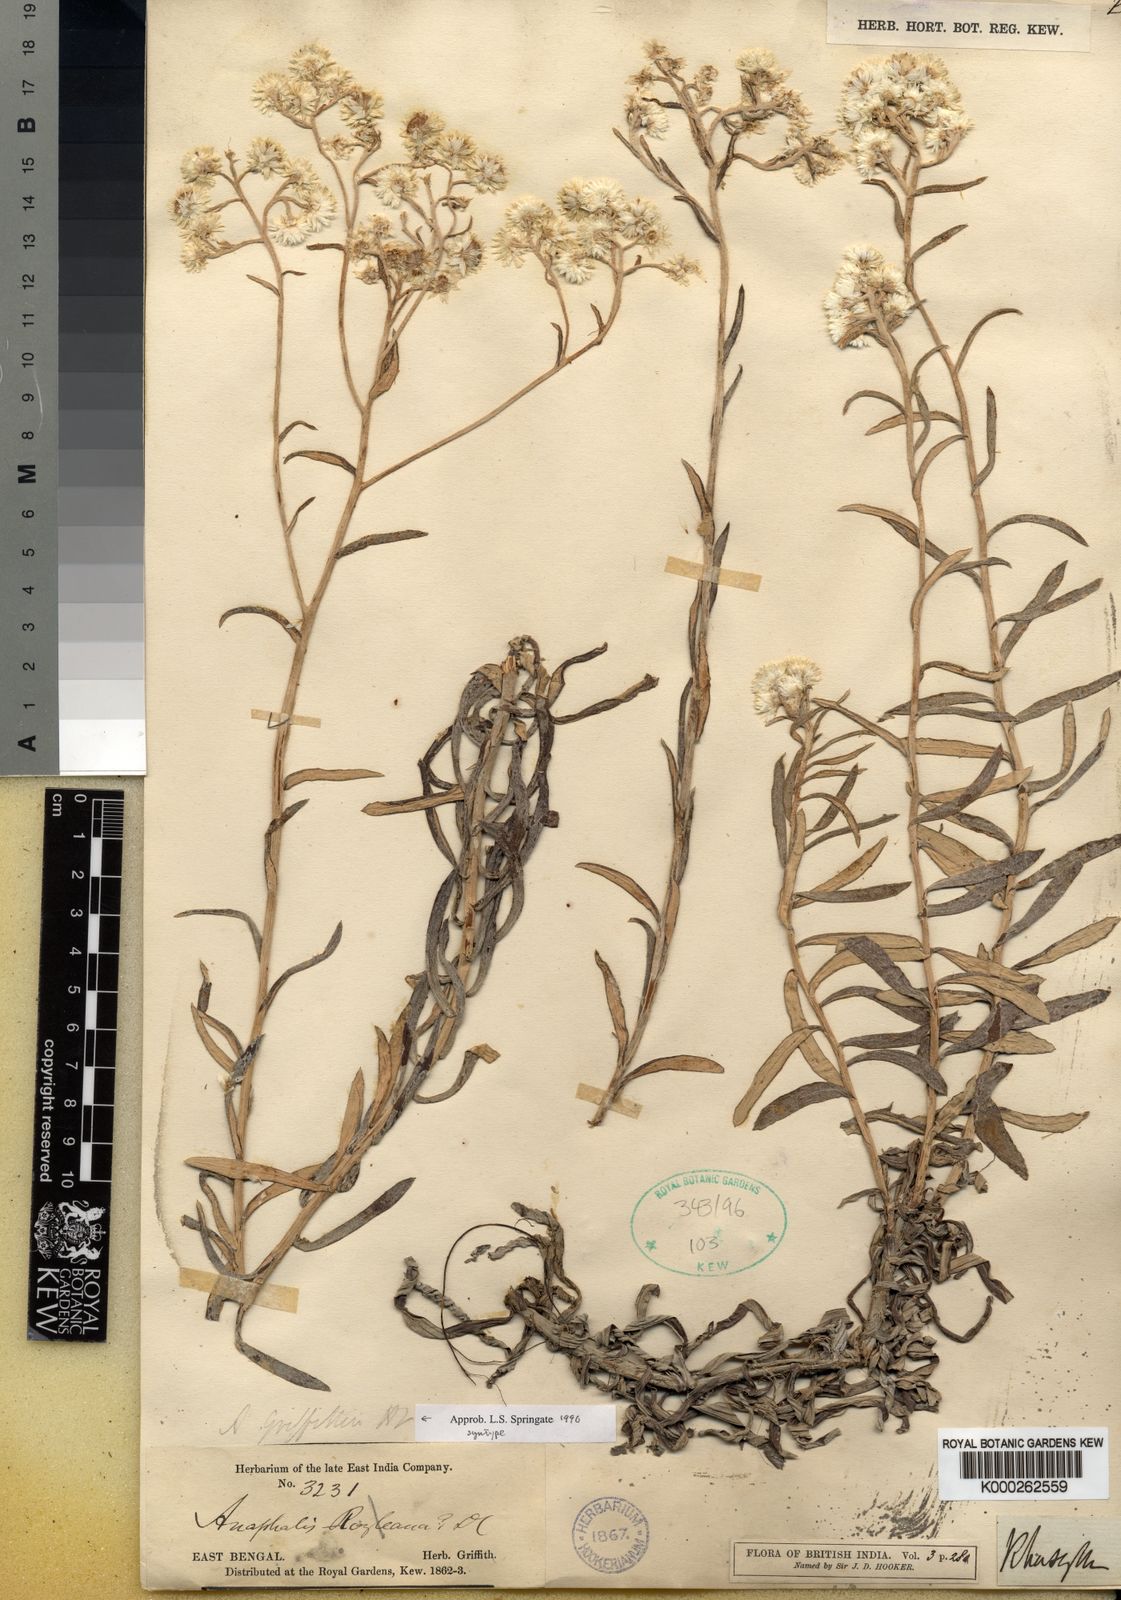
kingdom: Plantae
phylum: Tracheophyta
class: Magnoliopsida
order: Asterales
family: Asteraceae
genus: Anaphalis
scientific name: Anaphalis
